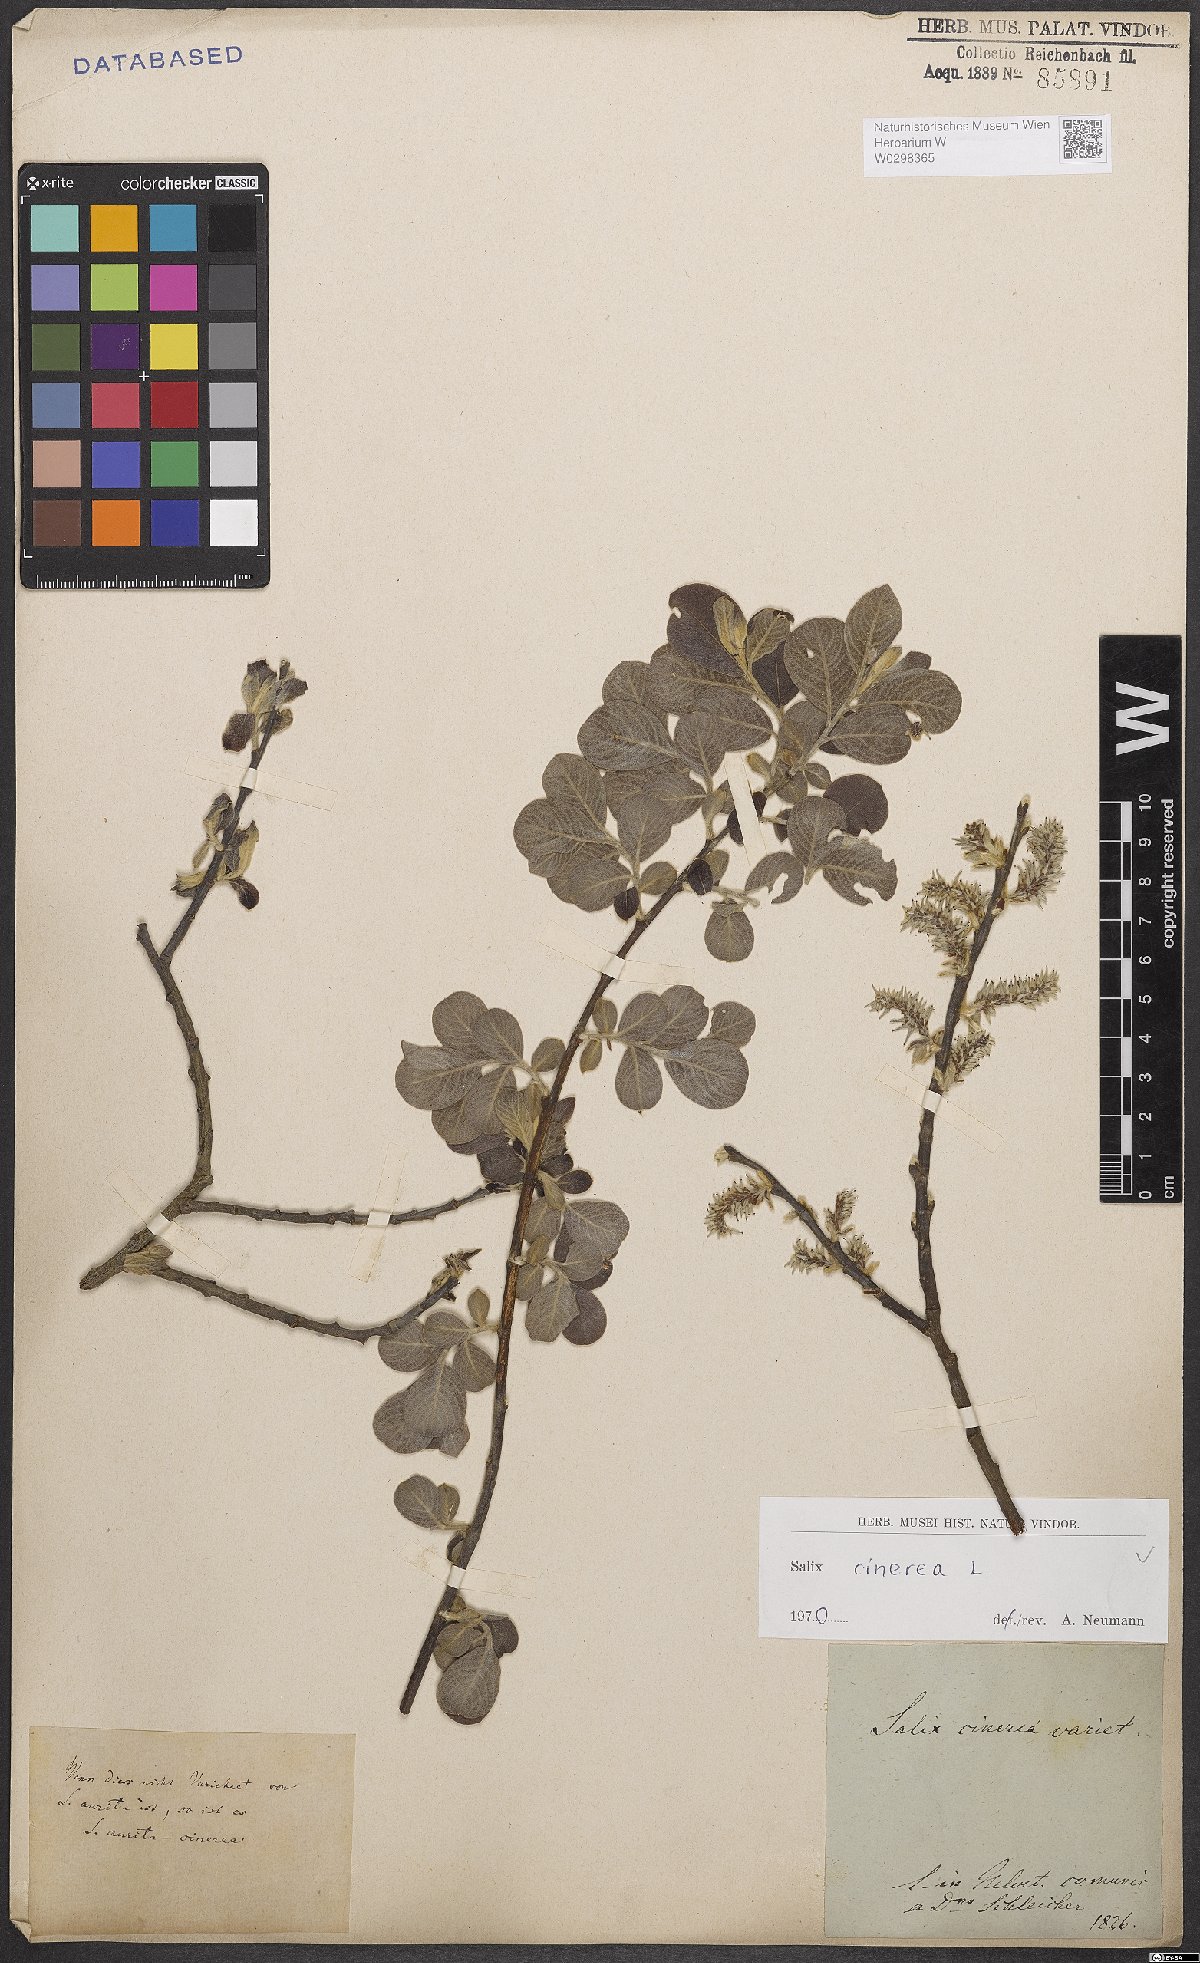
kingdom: Plantae
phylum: Tracheophyta
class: Magnoliopsida
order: Malpighiales
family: Salicaceae
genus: Salix
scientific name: Salix cinerea
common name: Common sallow
